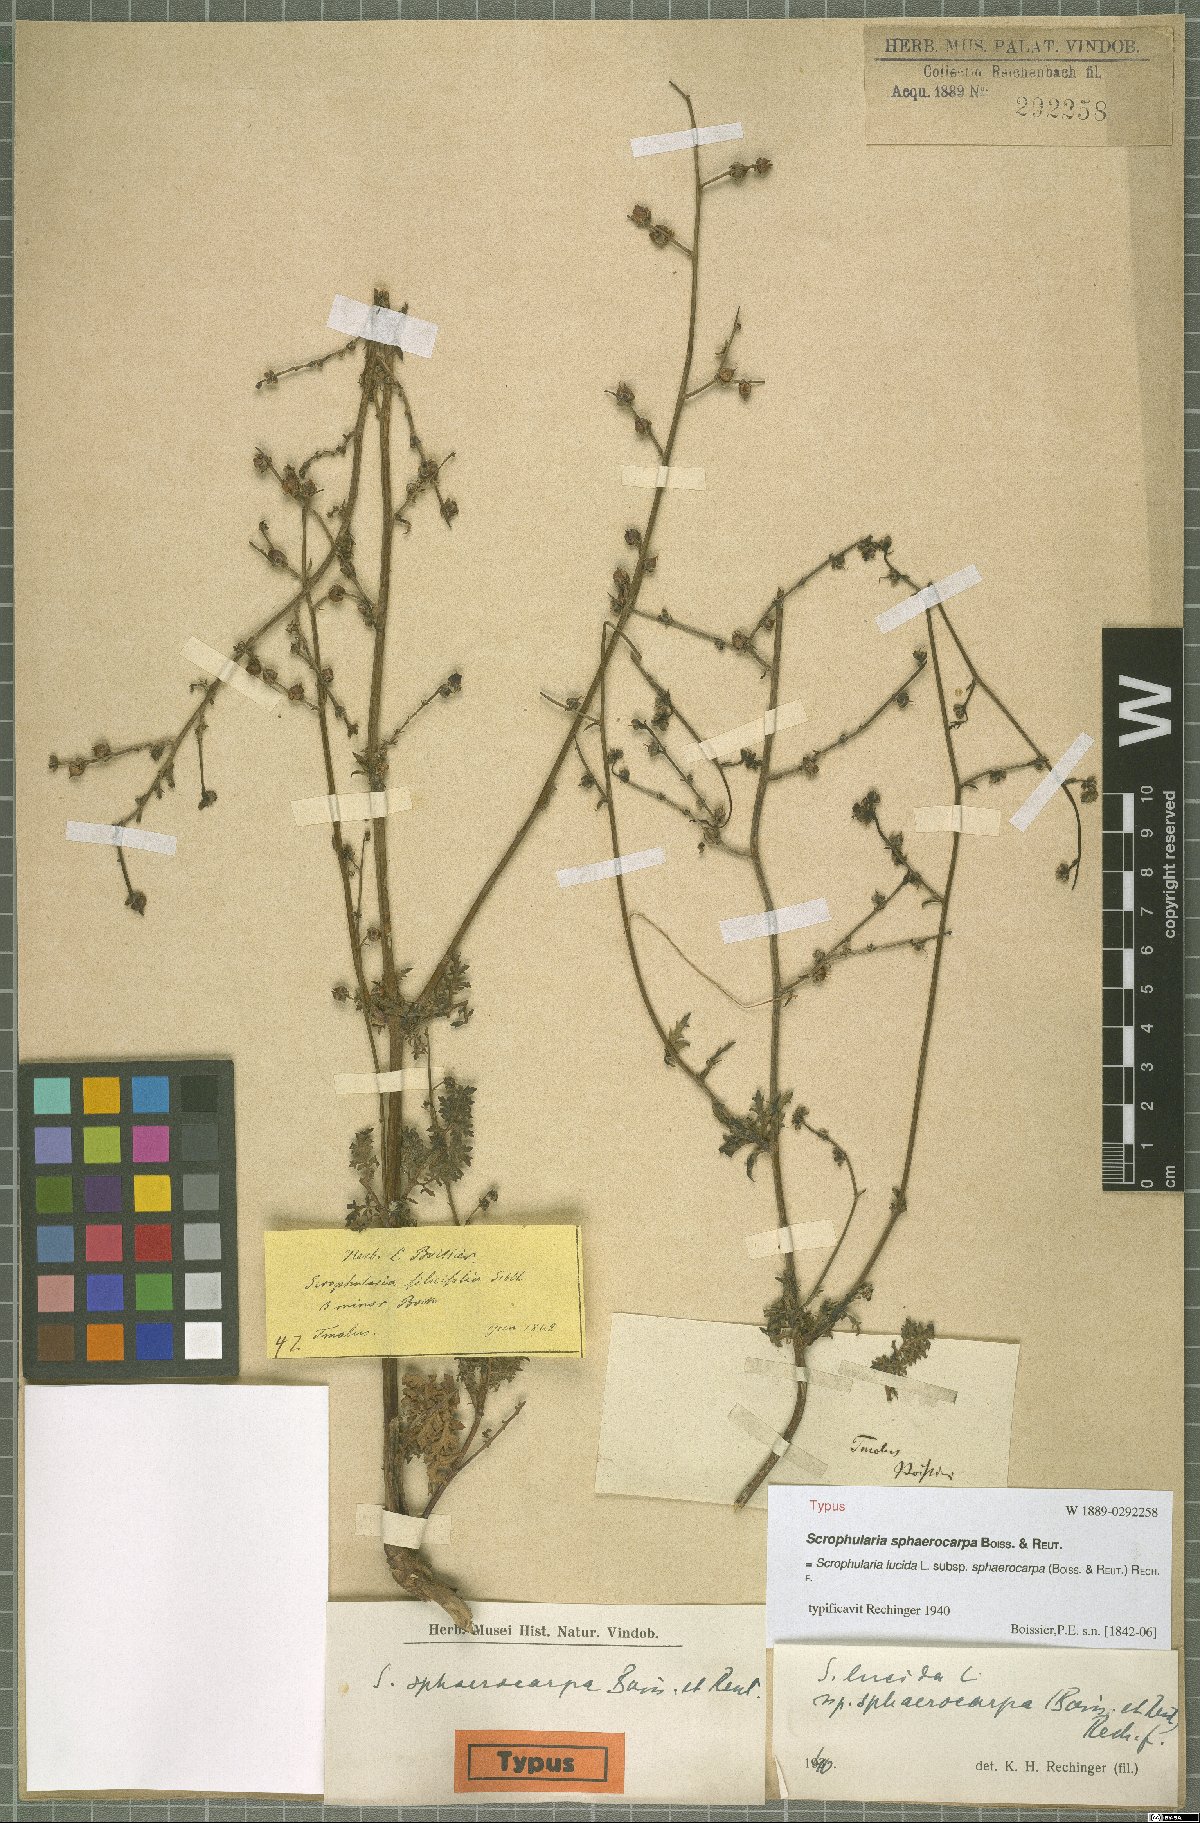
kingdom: Plantae
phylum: Tracheophyta
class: Magnoliopsida
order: Lamiales
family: Scrophulariaceae
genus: Scrophularia
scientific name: Scrophularia lucida
